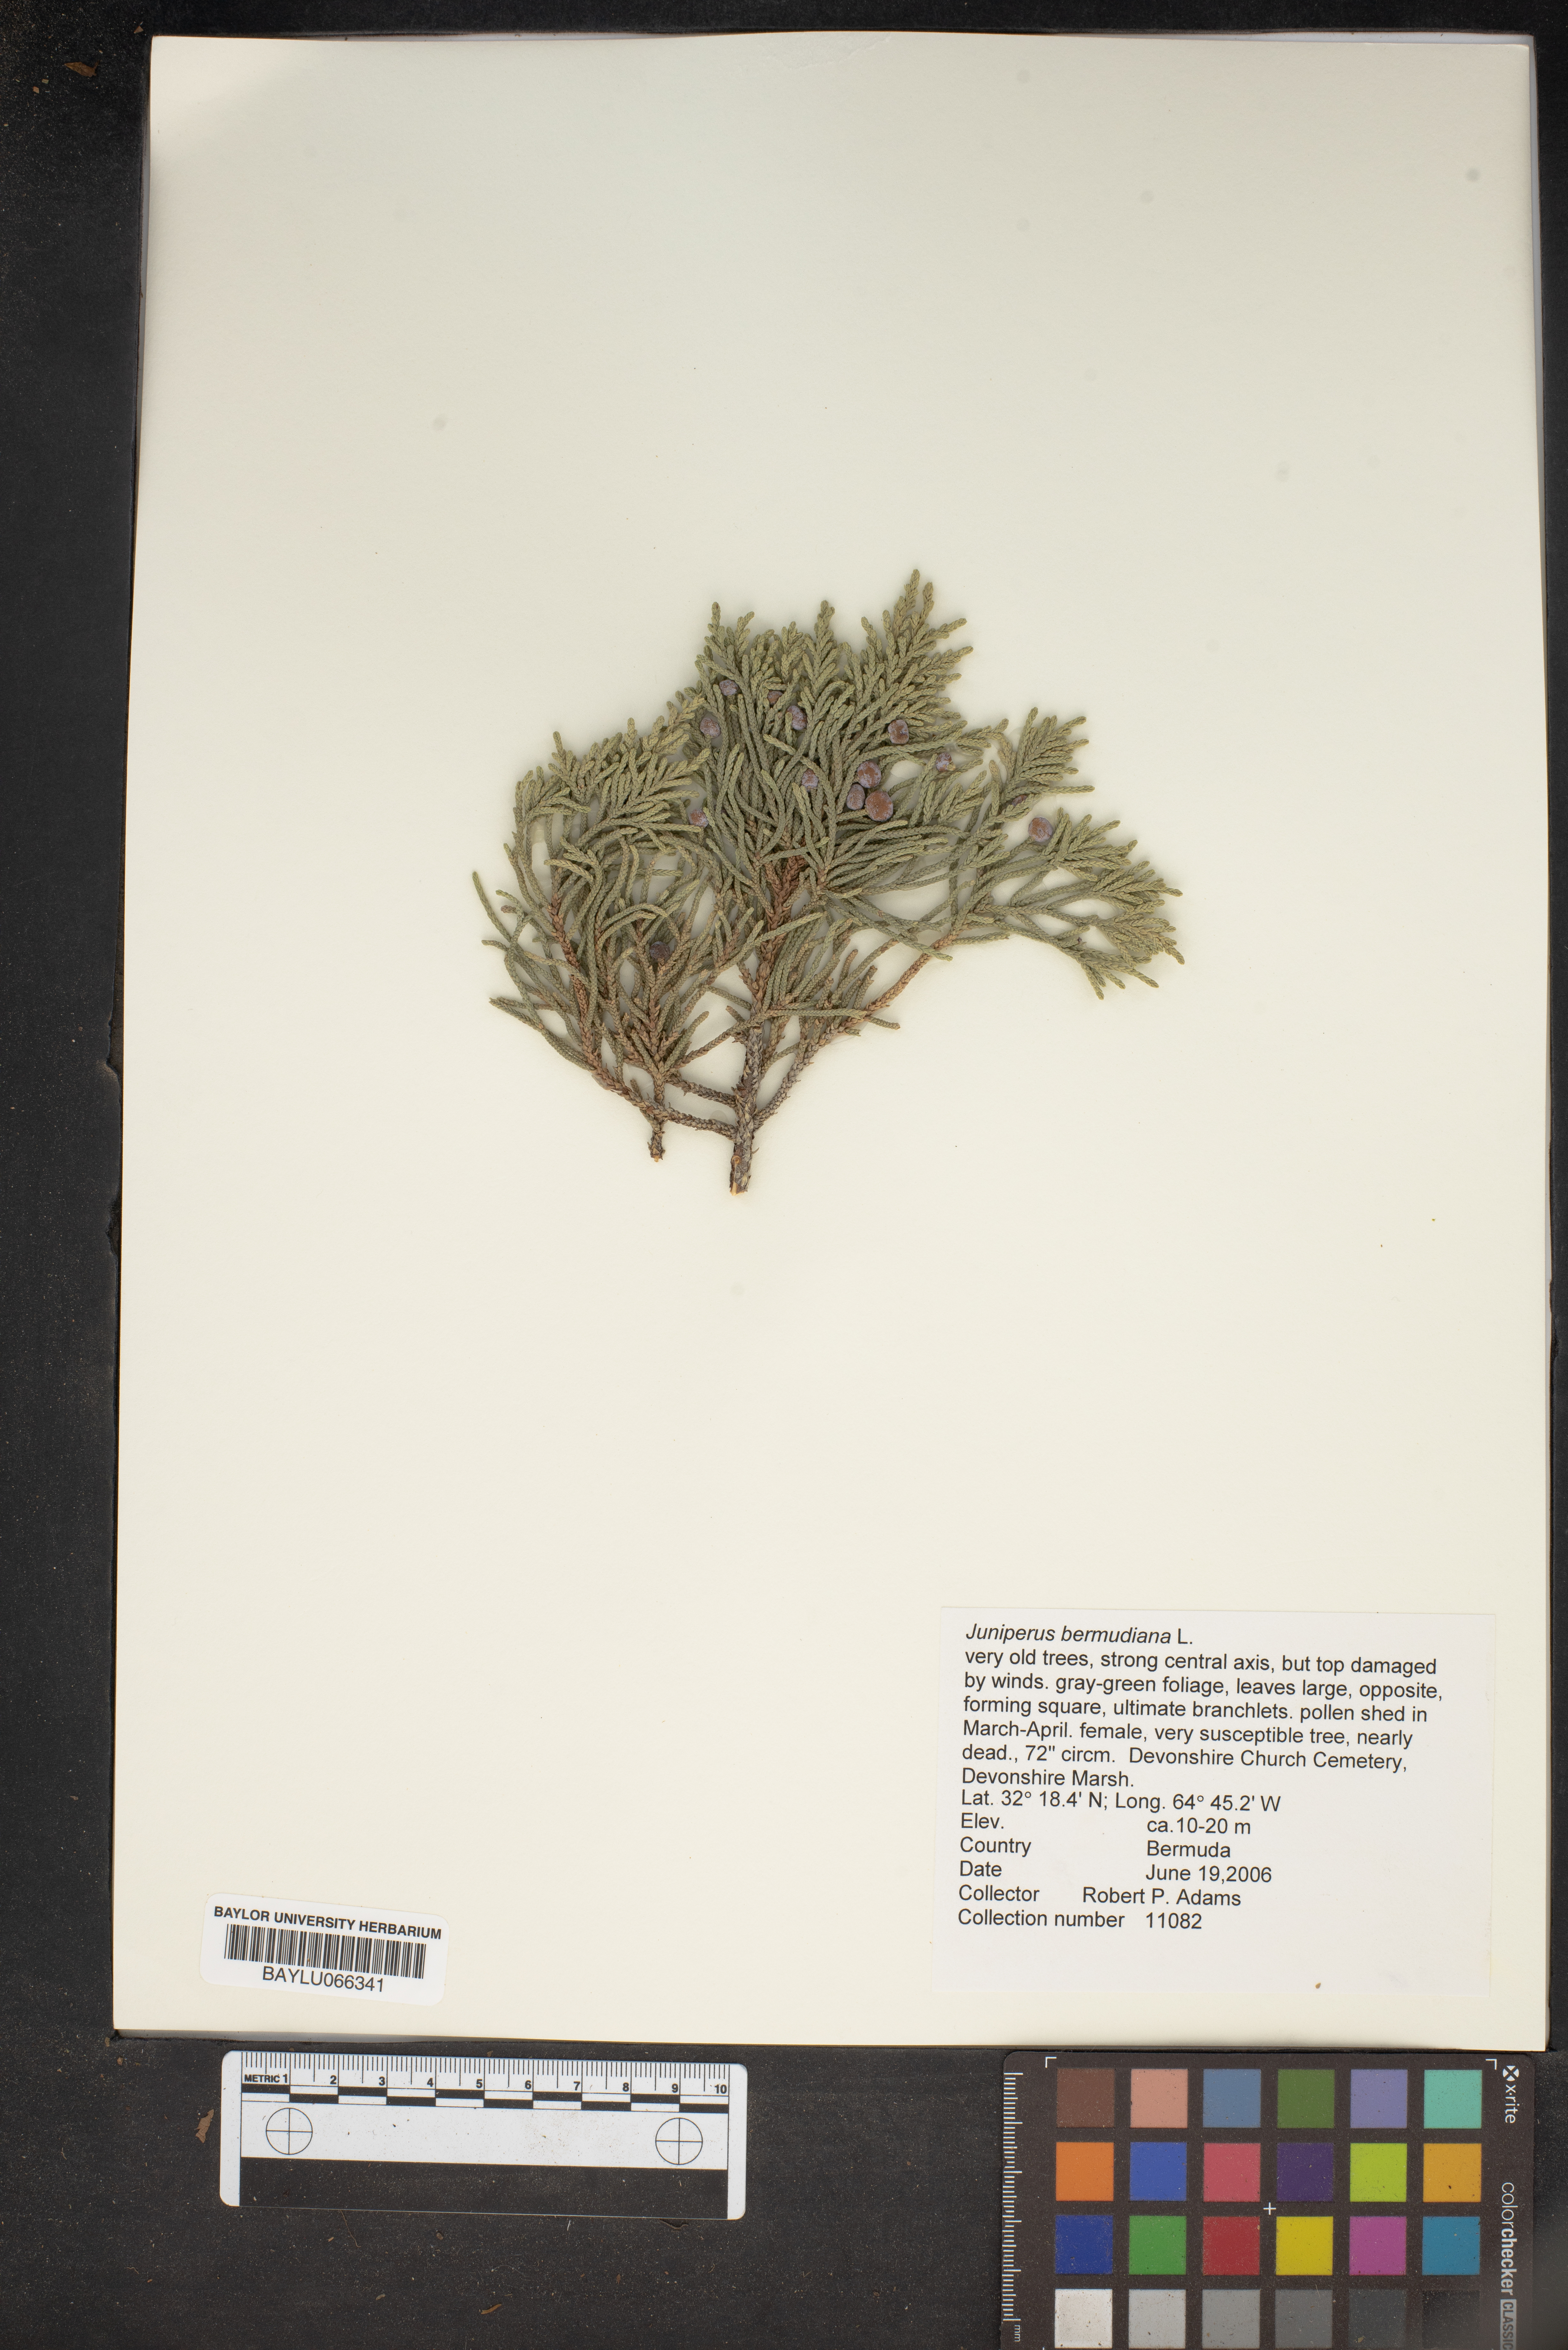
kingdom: Plantae
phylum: Tracheophyta
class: Pinopsida
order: Pinales
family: Cupressaceae
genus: Juniperus
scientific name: Juniperus bermudiana
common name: Bermuda juniper
